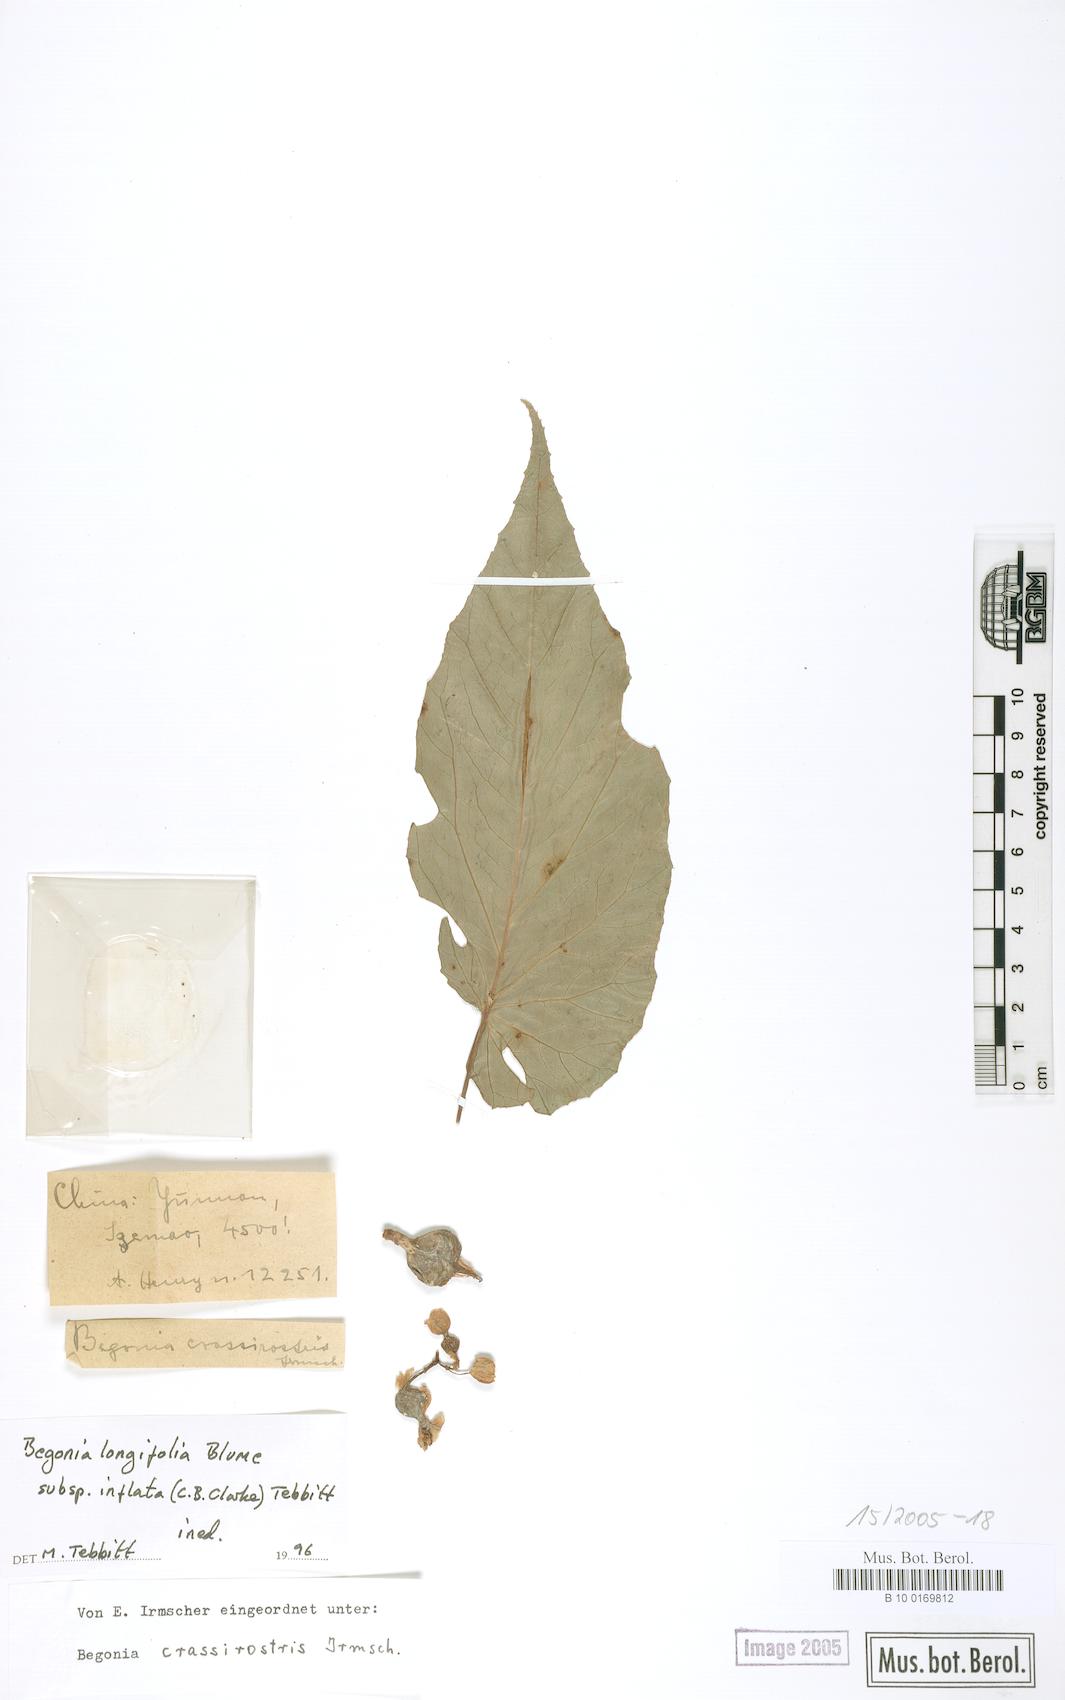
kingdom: Plantae
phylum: Tracheophyta
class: Magnoliopsida
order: Cucurbitales
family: Begoniaceae
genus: Begonia
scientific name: Begonia longifolia
